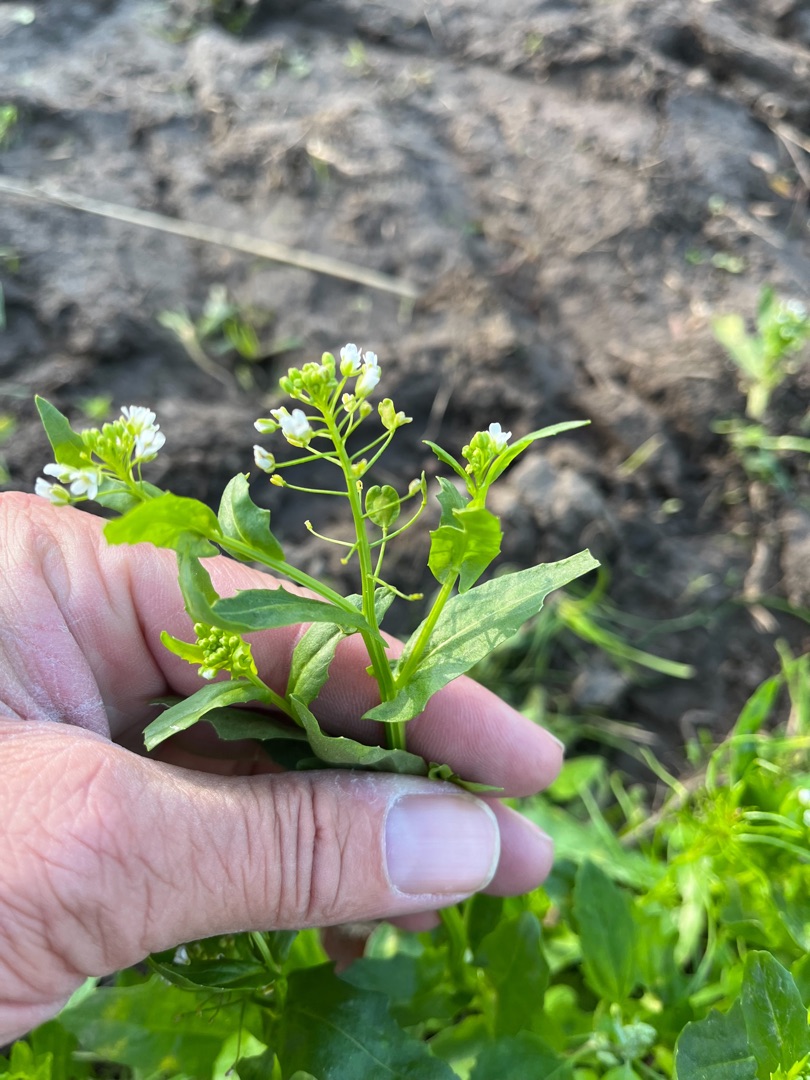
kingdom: Plantae
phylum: Tracheophyta
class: Magnoliopsida
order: Brassicales
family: Brassicaceae
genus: Thlaspi
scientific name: Thlaspi arvense
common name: Almindelig pengeurt
